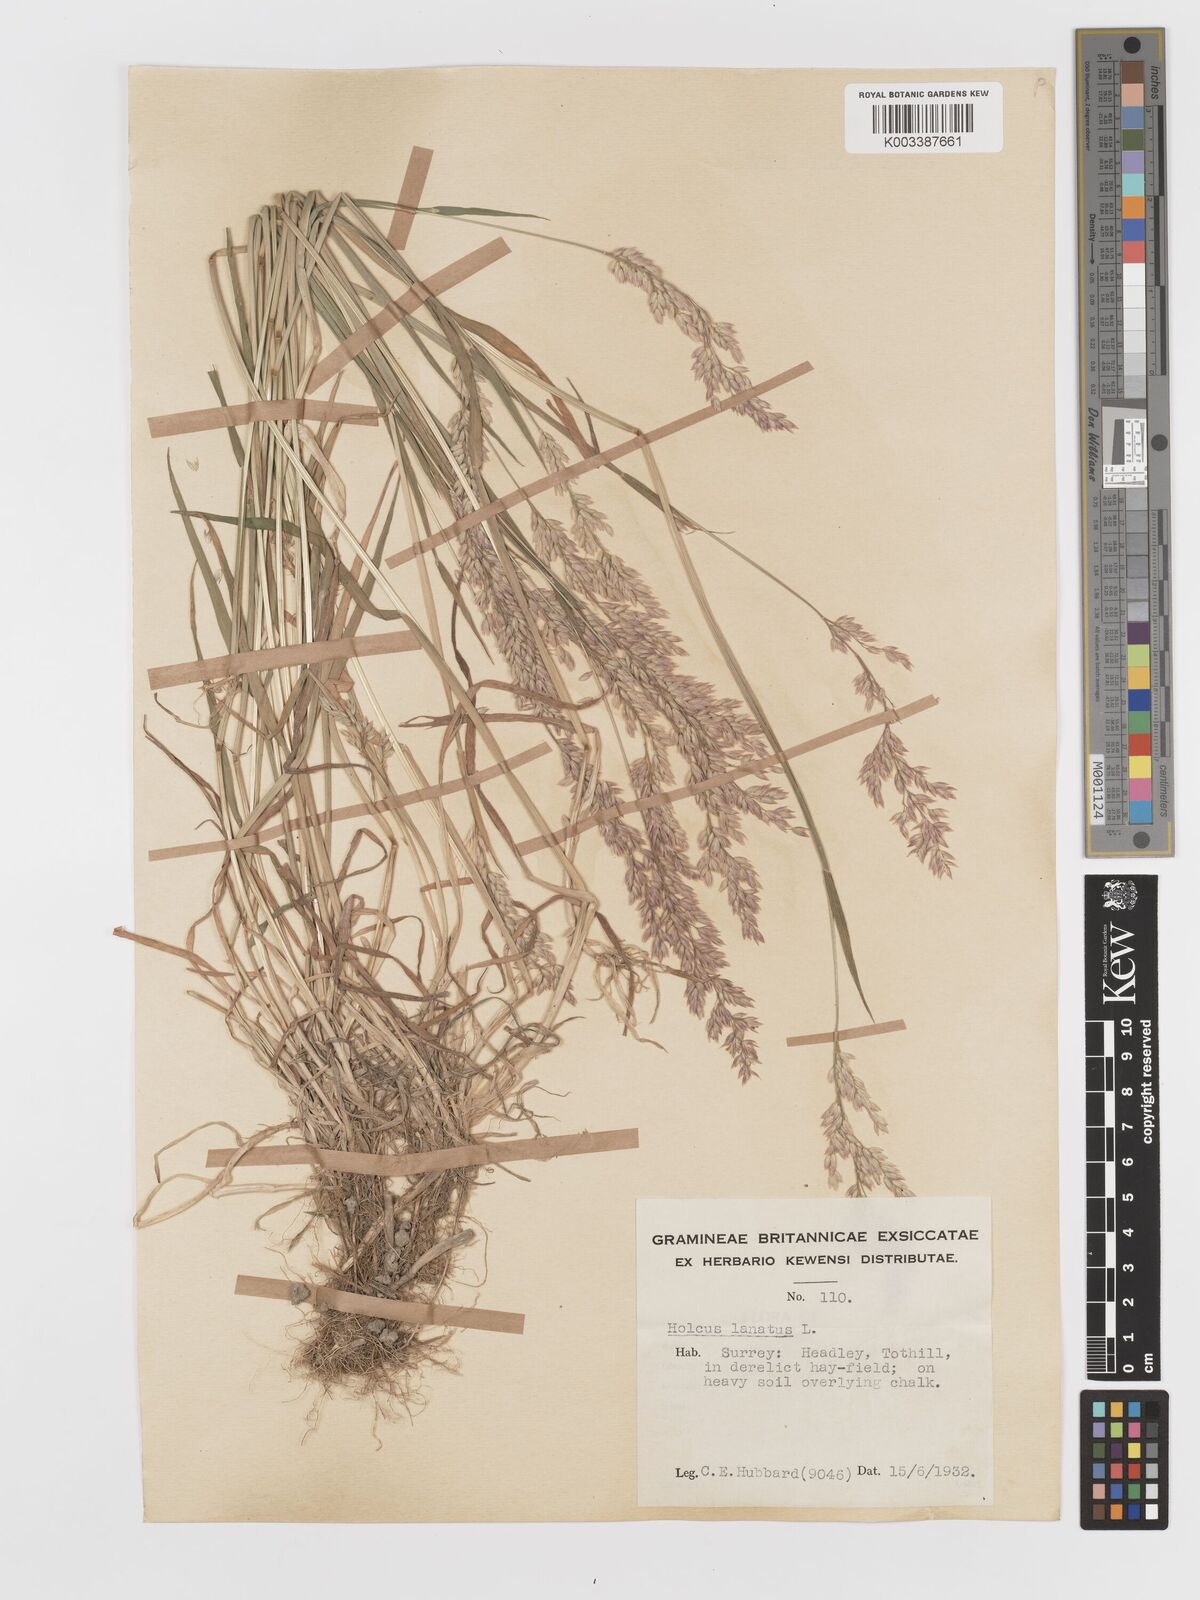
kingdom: Plantae
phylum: Tracheophyta
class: Liliopsida
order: Poales
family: Poaceae
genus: Holcus
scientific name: Holcus lanatus
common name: Yorkshire-fog
